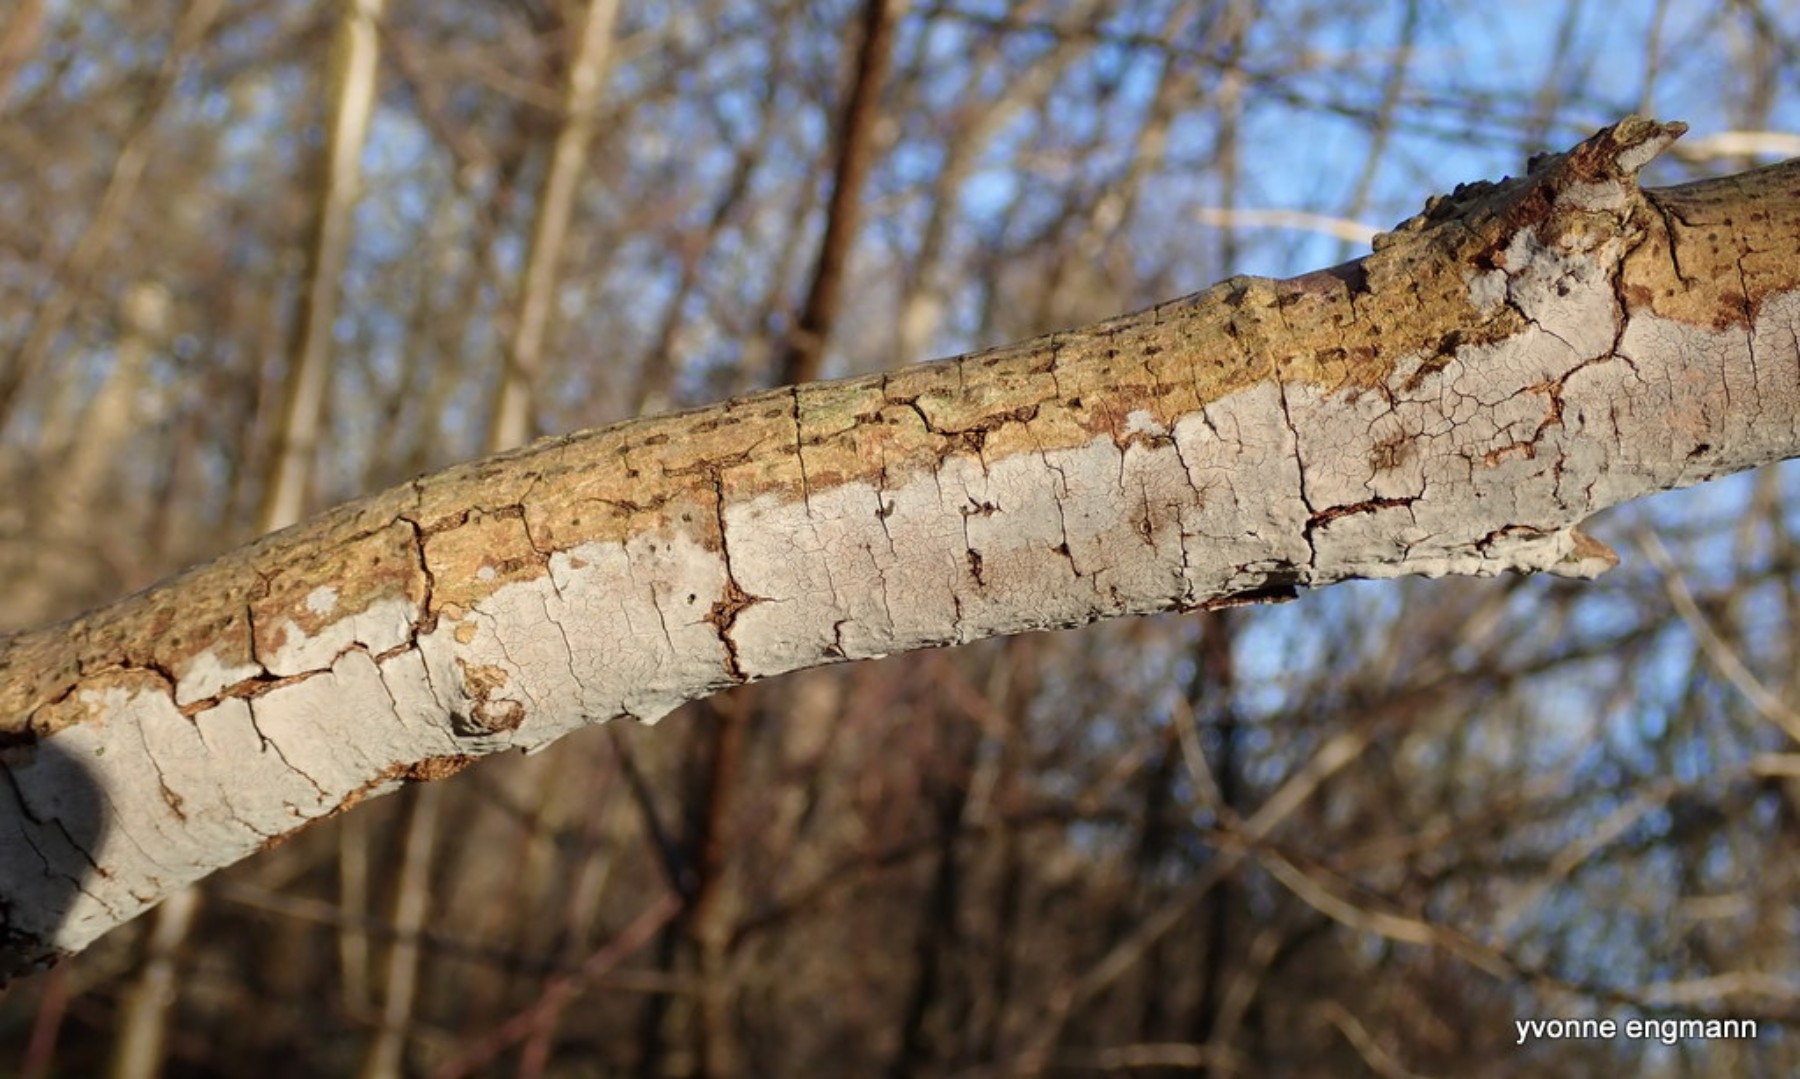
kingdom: Fungi
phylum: Basidiomycota
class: Agaricomycetes
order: Russulales
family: Peniophoraceae
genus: Peniophora
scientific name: Peniophora lycii
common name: grynet voksskind
